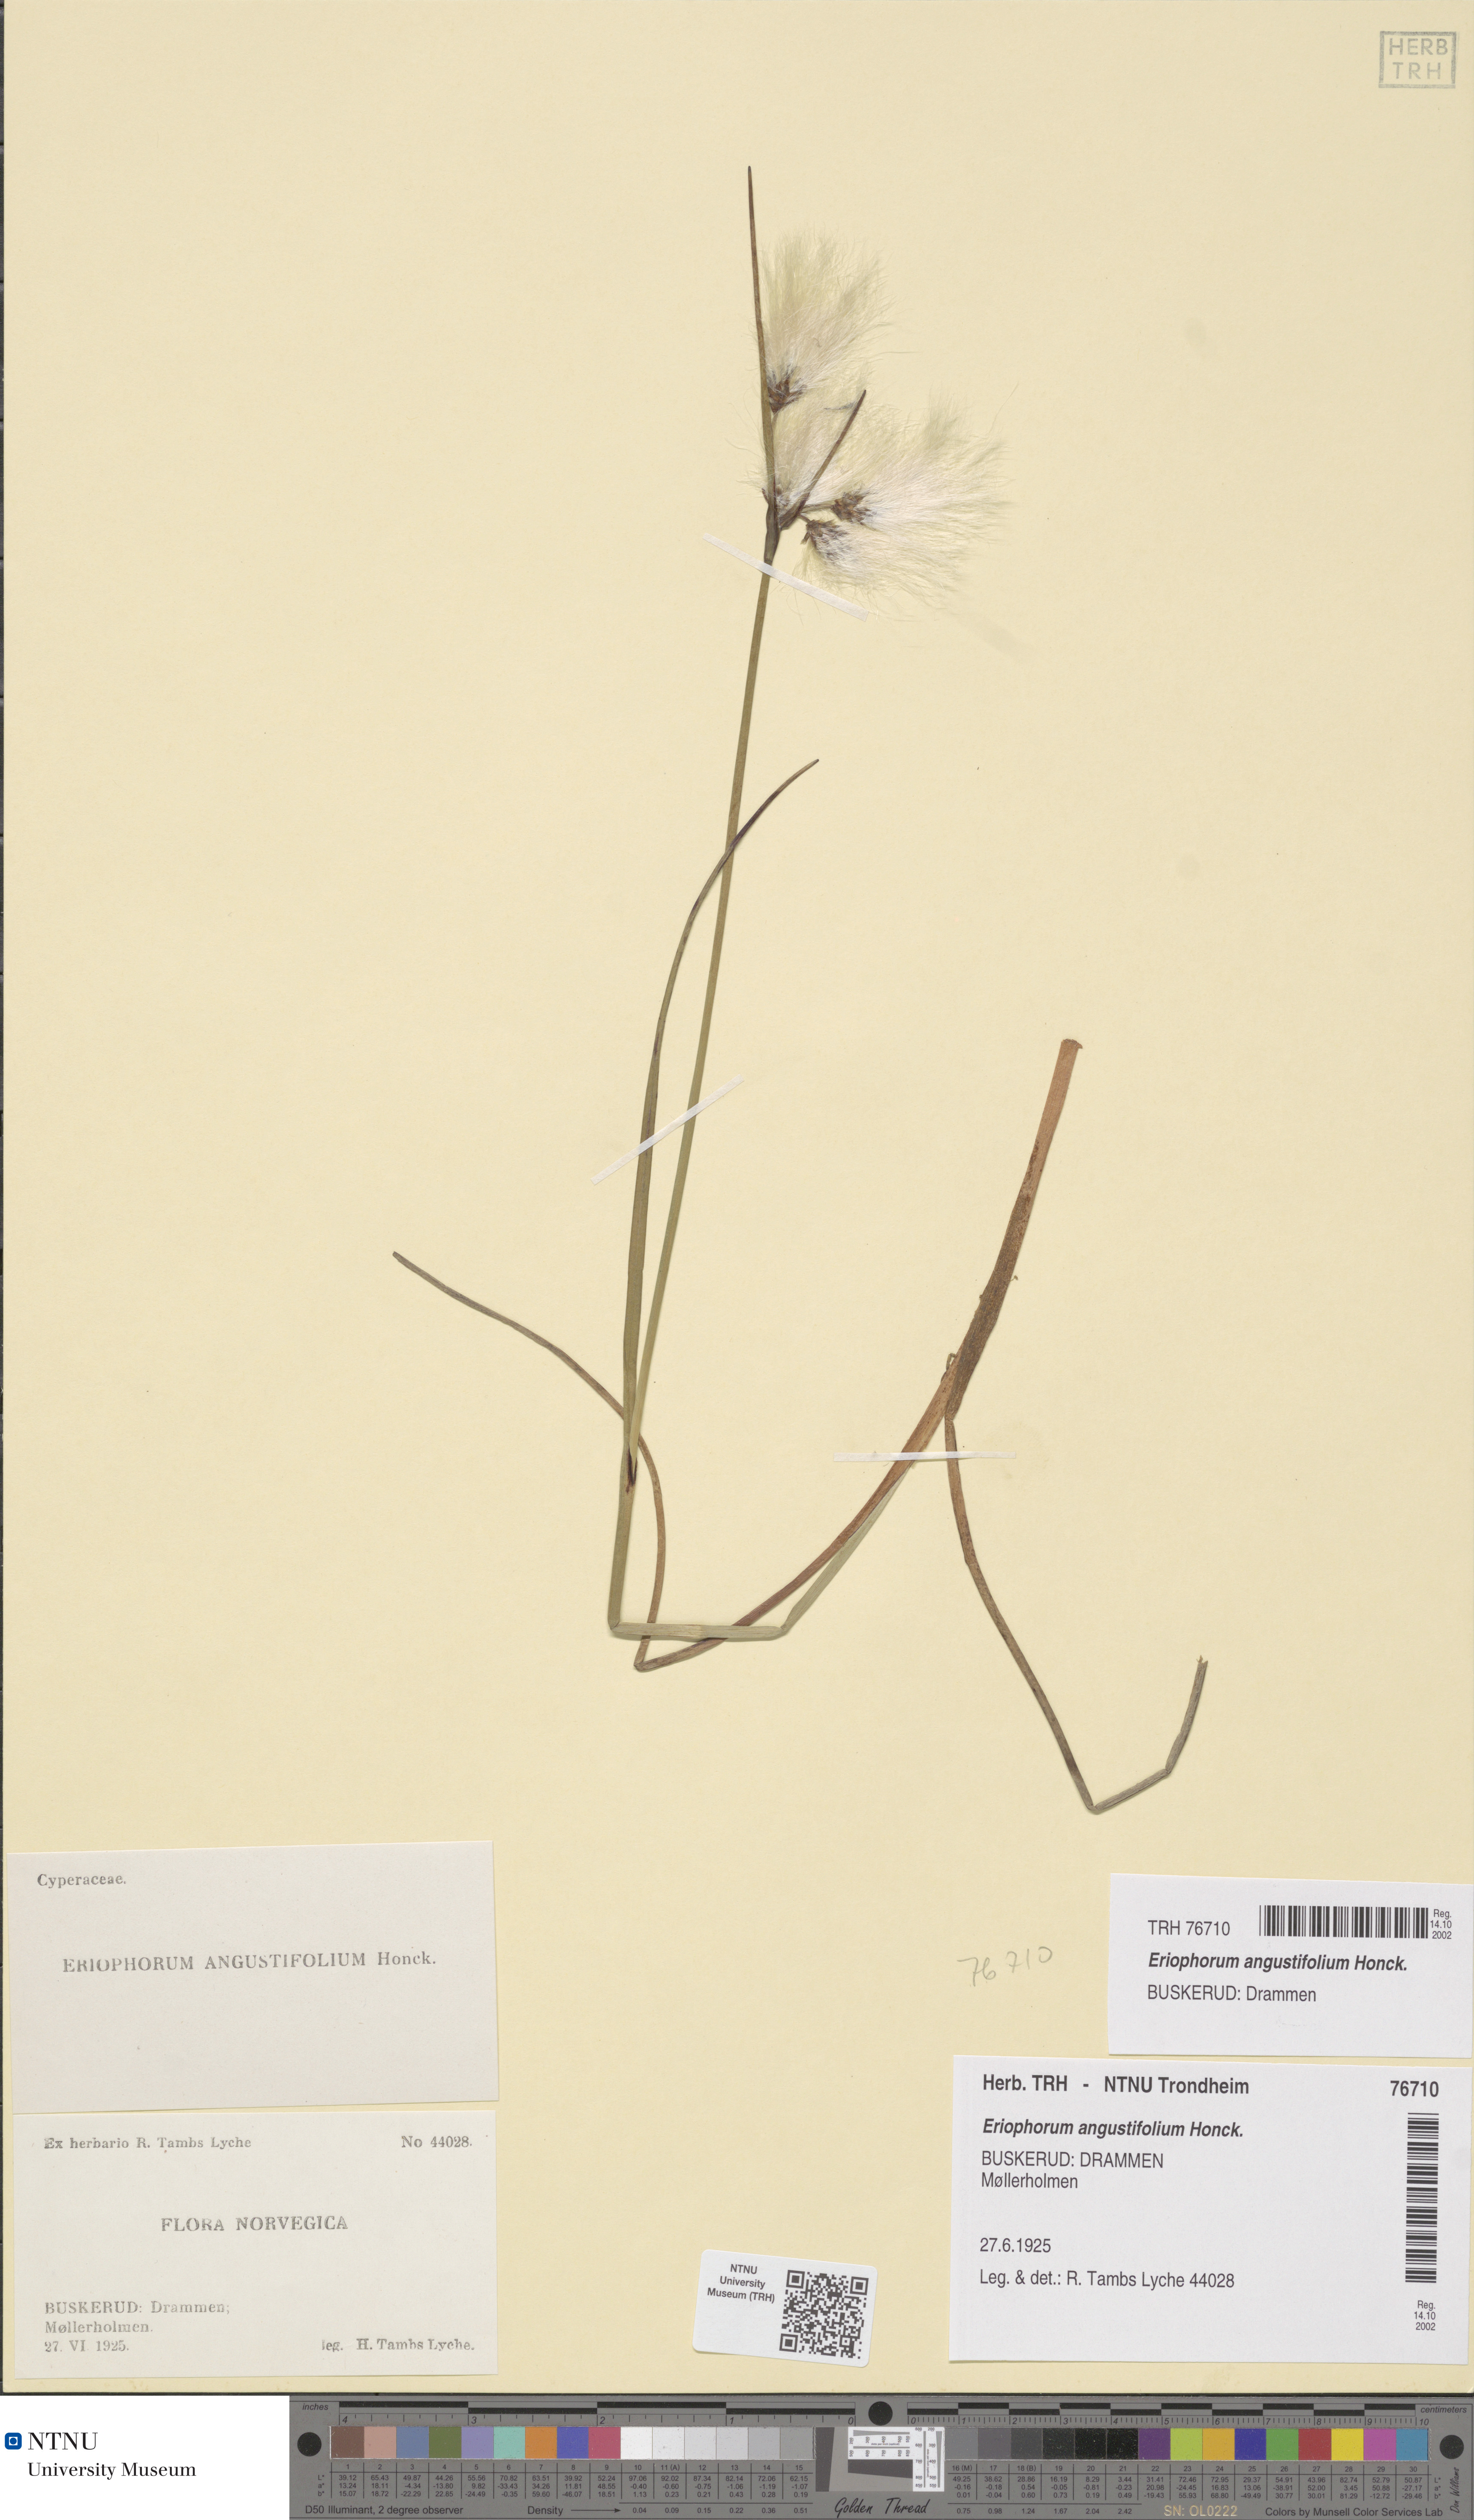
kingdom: Plantae
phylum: Tracheophyta
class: Liliopsida
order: Poales
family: Cyperaceae
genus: Eriophorum
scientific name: Eriophorum angustifolium
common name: Common cottongrass
